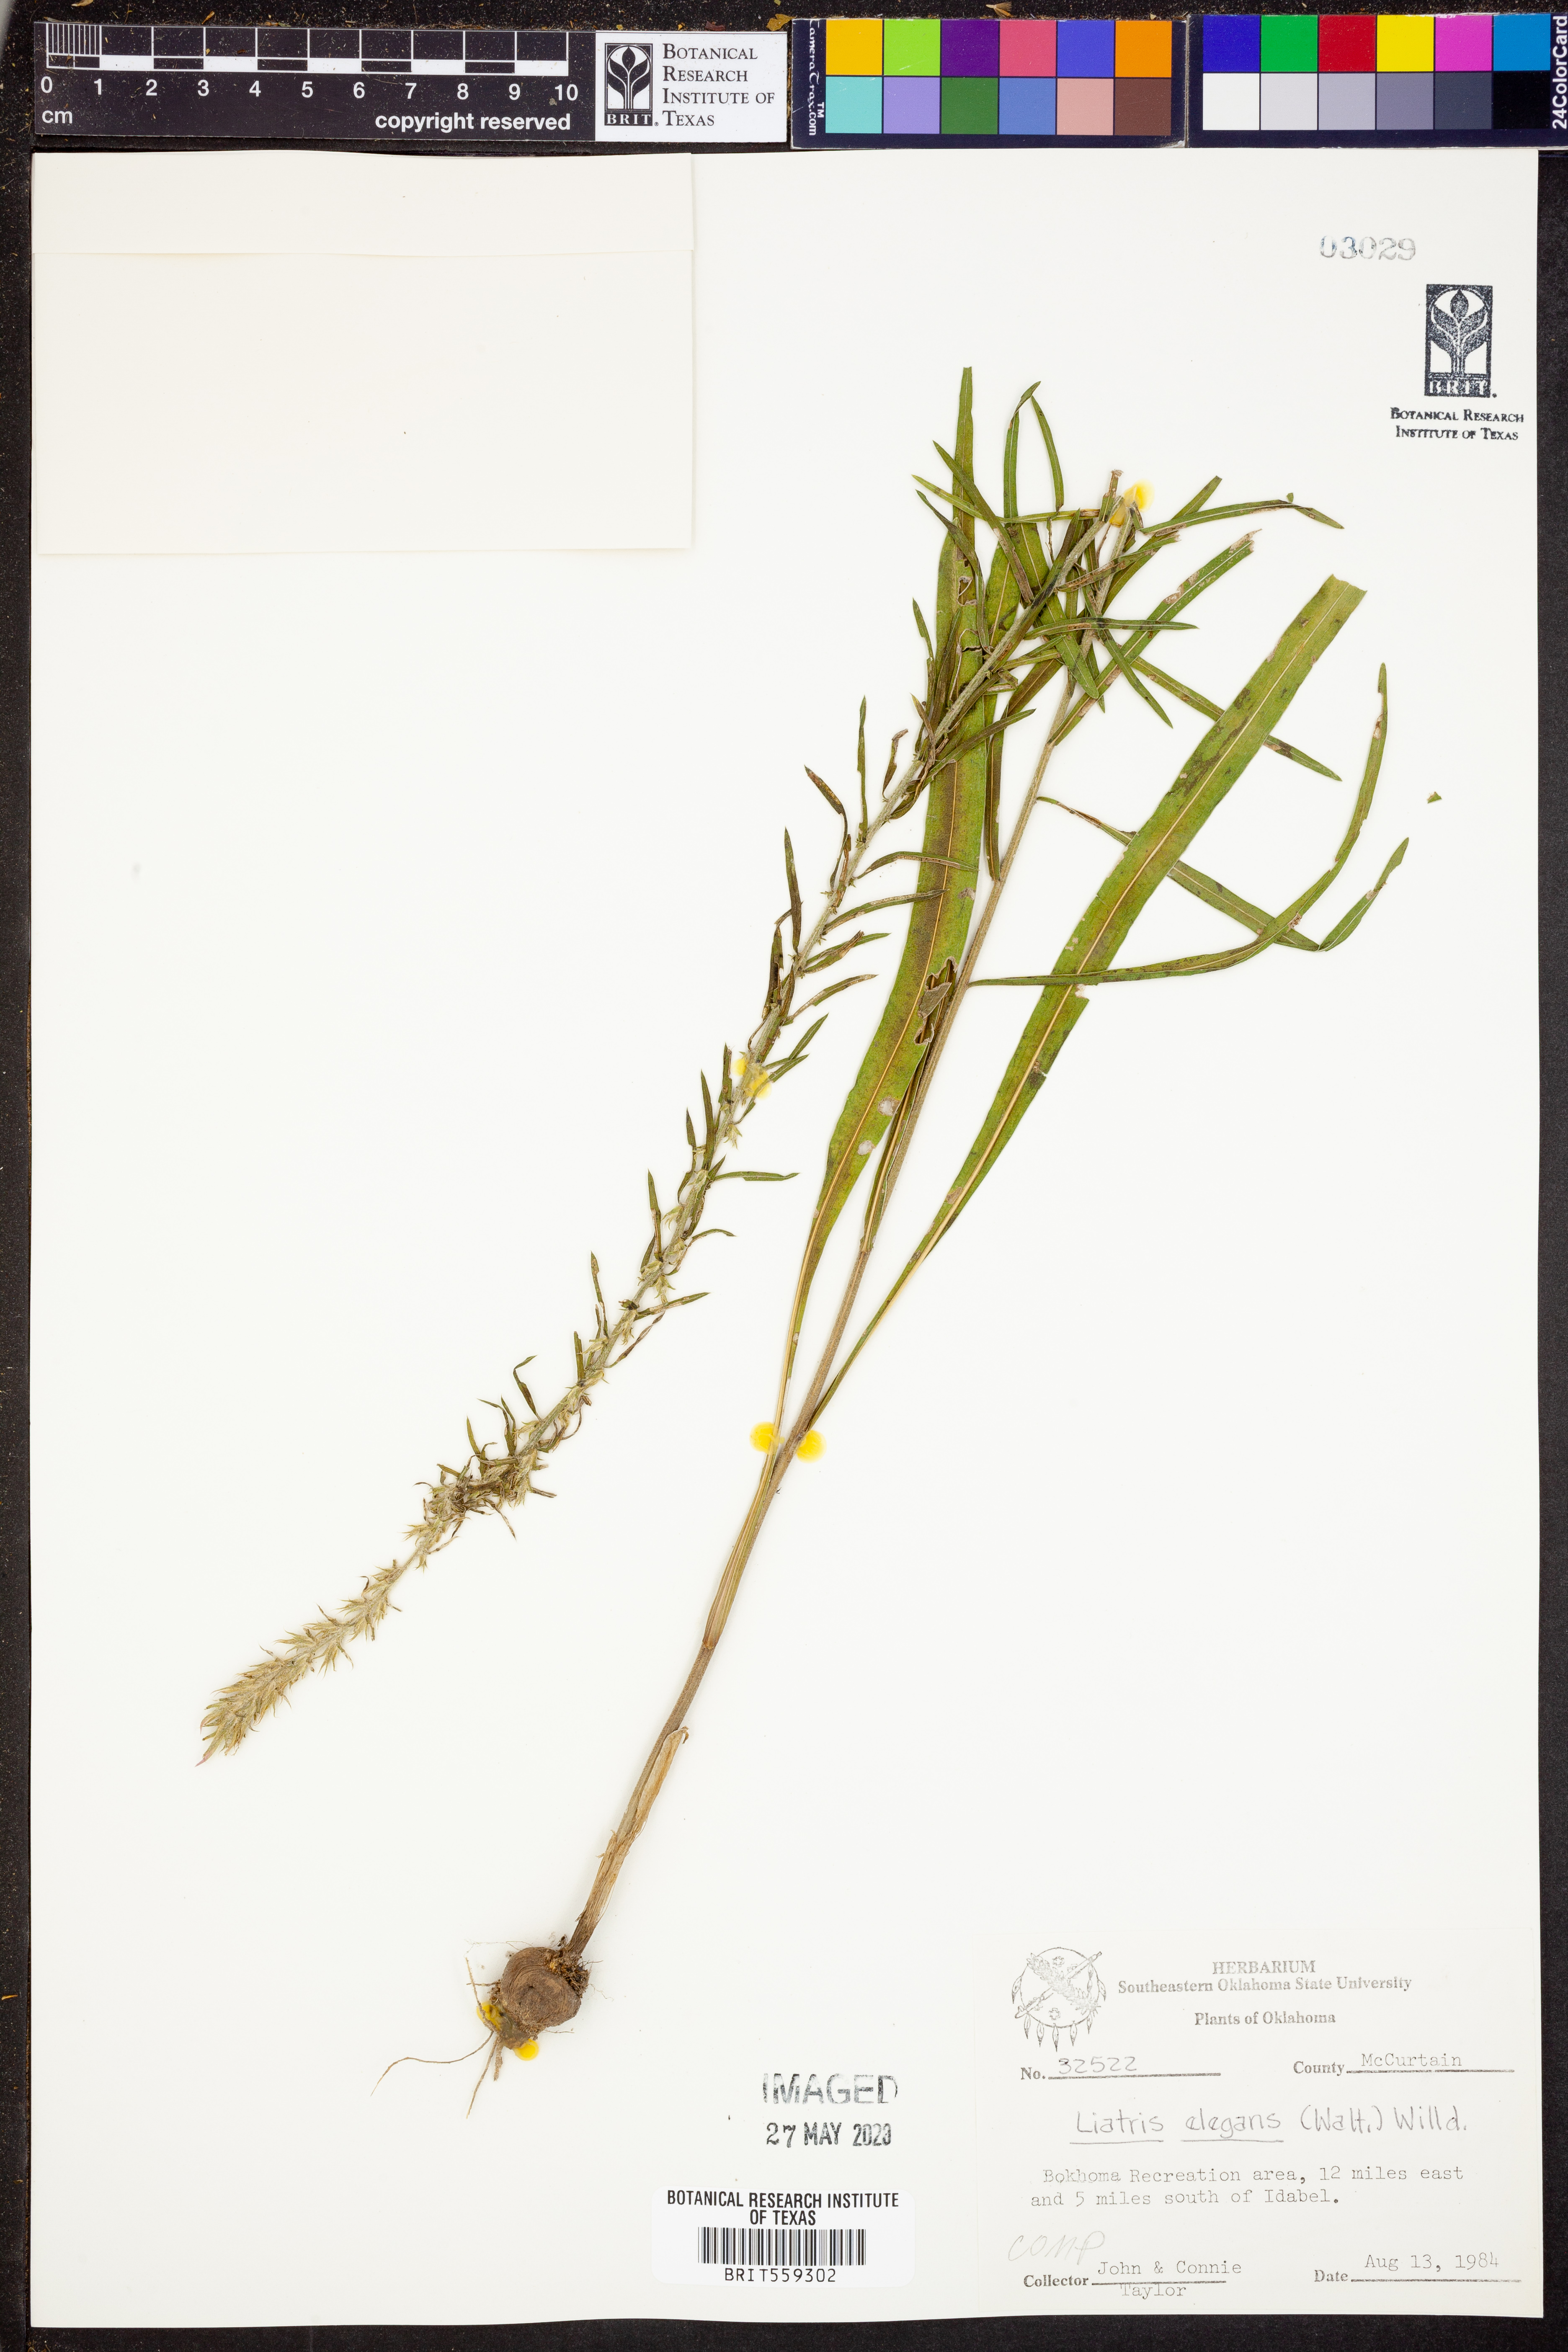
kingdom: Plantae
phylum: Tracheophyta
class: Magnoliopsida
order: Asterales
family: Asteraceae
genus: Liatris
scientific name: Liatris elegans
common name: Pinkscale gayfeather
